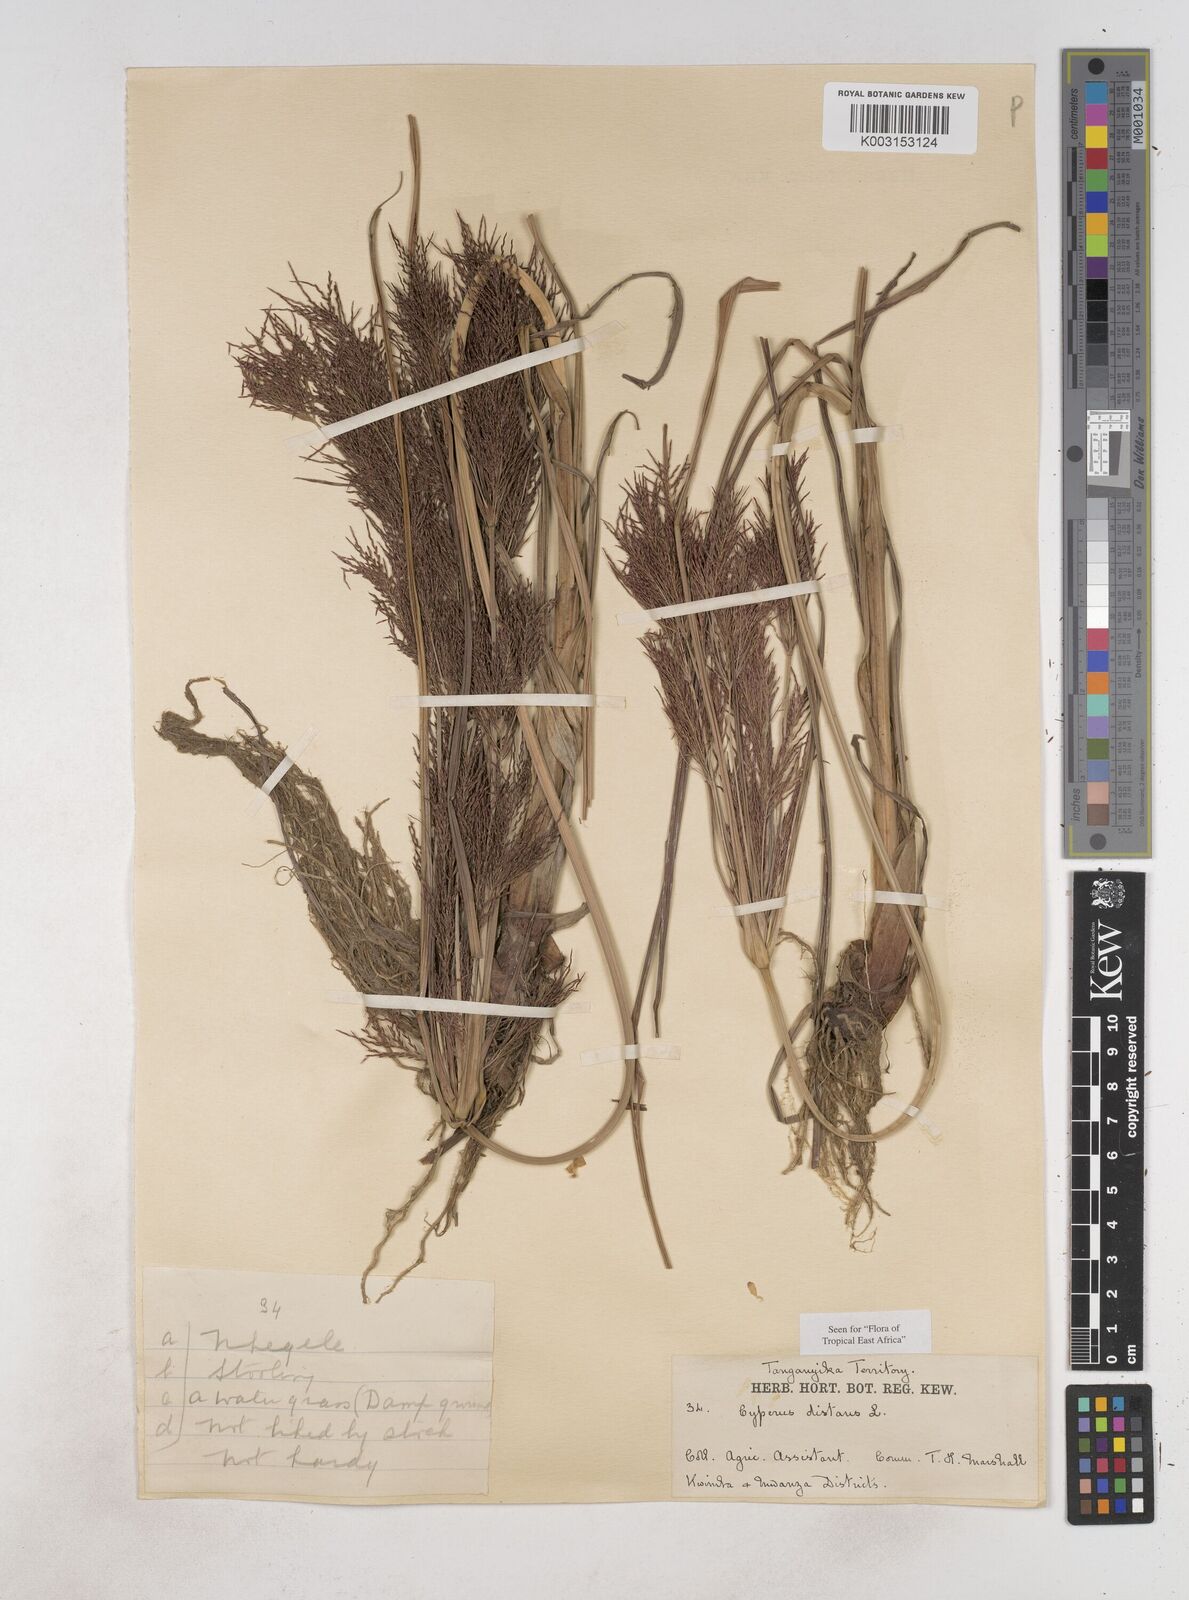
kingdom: Plantae
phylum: Tracheophyta
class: Liliopsida
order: Poales
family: Cyperaceae
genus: Cyperus
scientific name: Cyperus distans
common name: Slender cyperus
